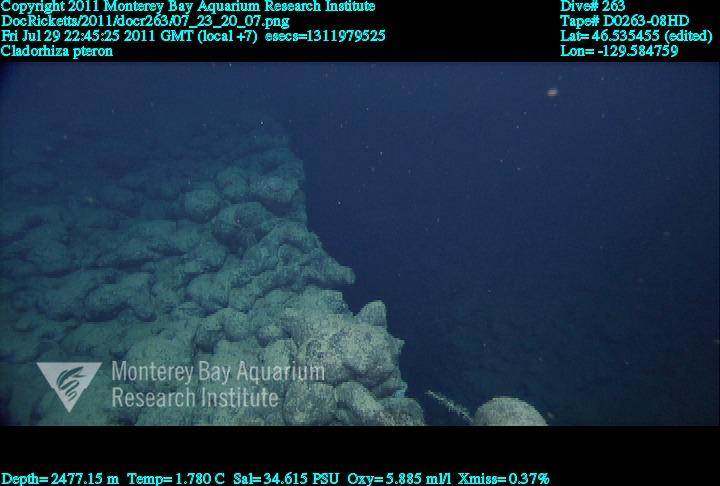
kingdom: Animalia
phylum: Porifera
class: Demospongiae
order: Poecilosclerida
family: Cladorhizidae
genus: Nullarbora
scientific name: Nullarbora pteron
